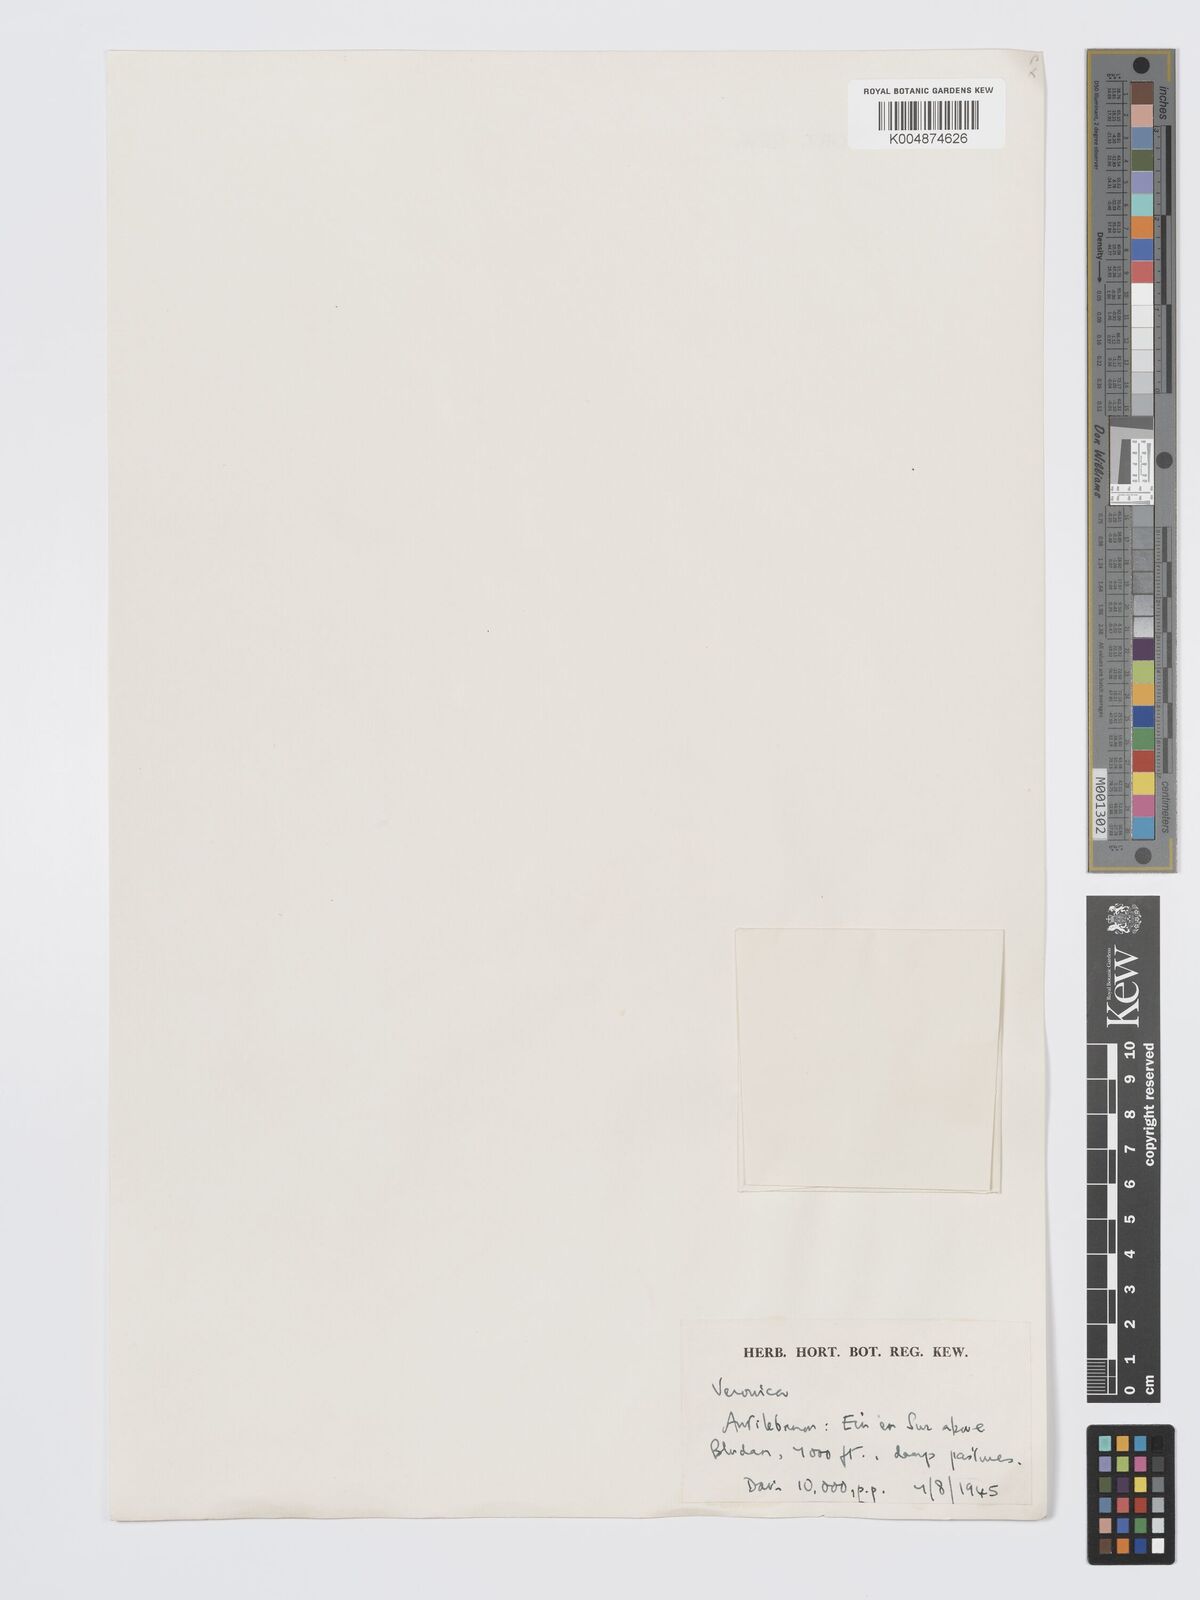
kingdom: Plantae
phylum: Tracheophyta
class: Magnoliopsida
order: Lamiales
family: Plantaginaceae
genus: Veronica
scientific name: Veronica
